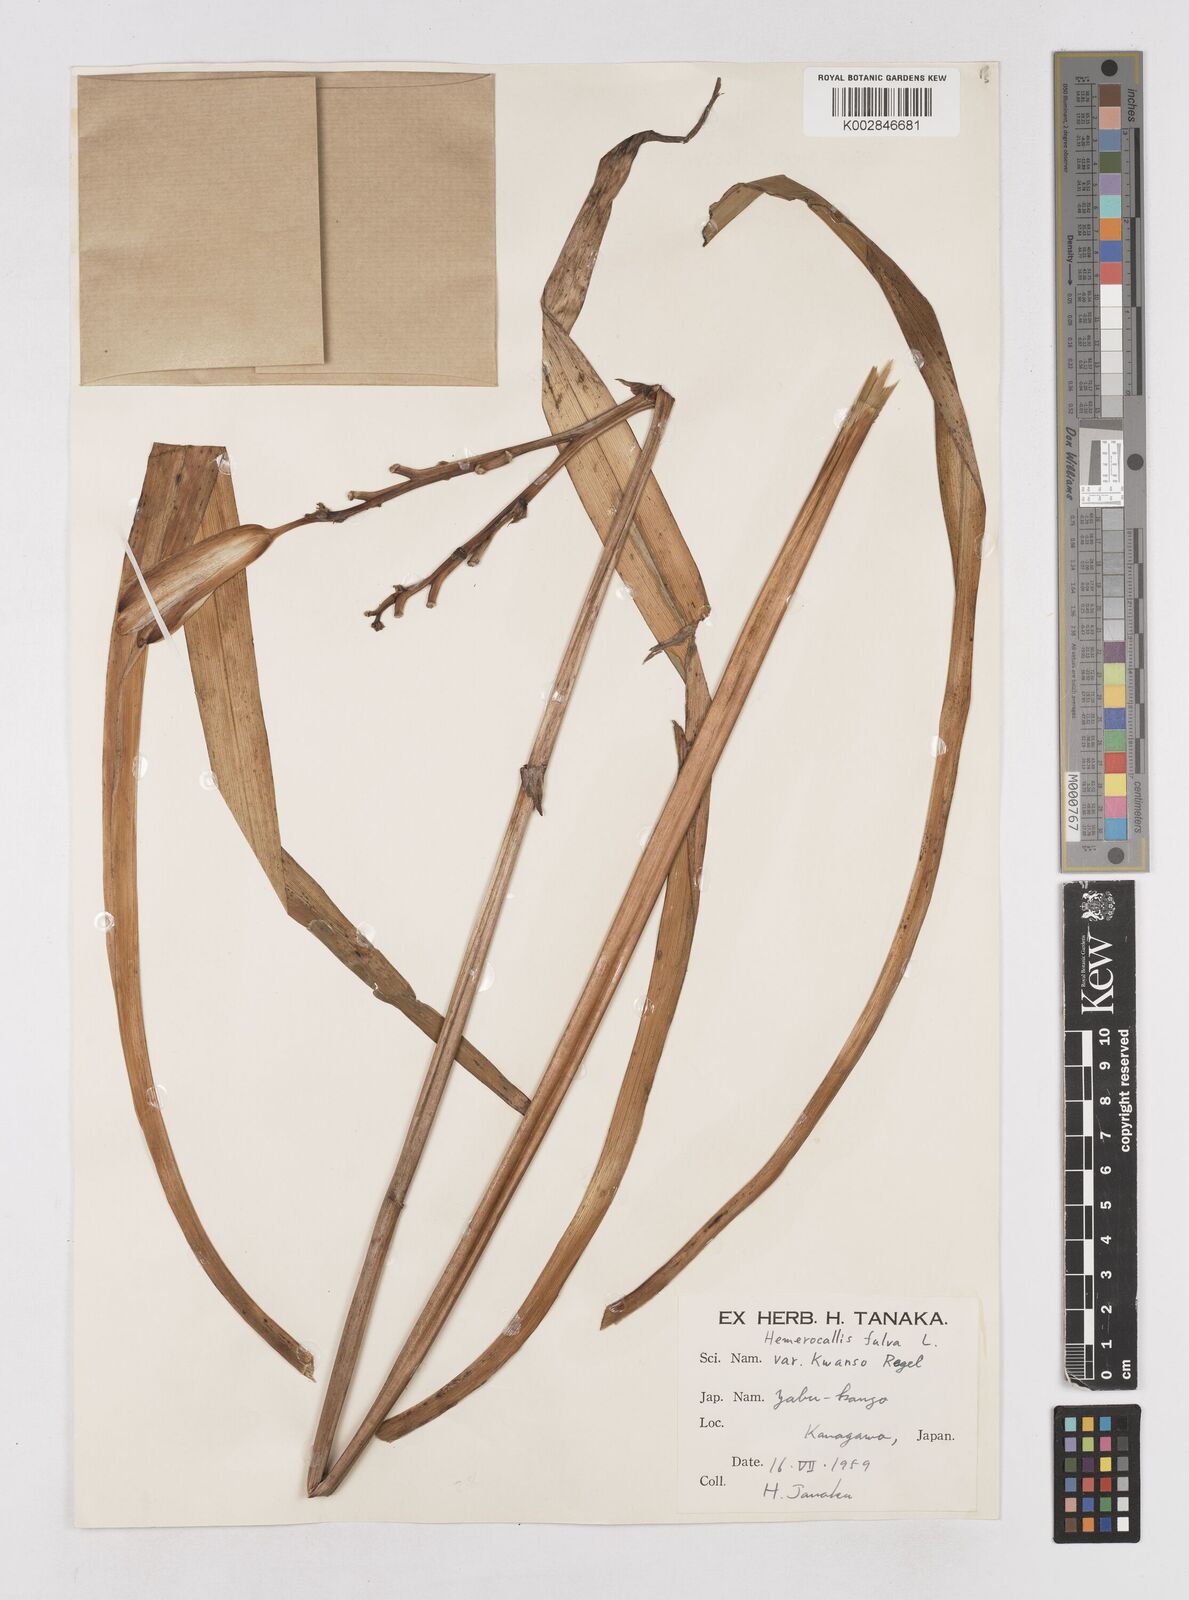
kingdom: Plantae
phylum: Tracheophyta
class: Liliopsida
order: Asparagales
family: Asphodelaceae
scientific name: Asphodelaceae
